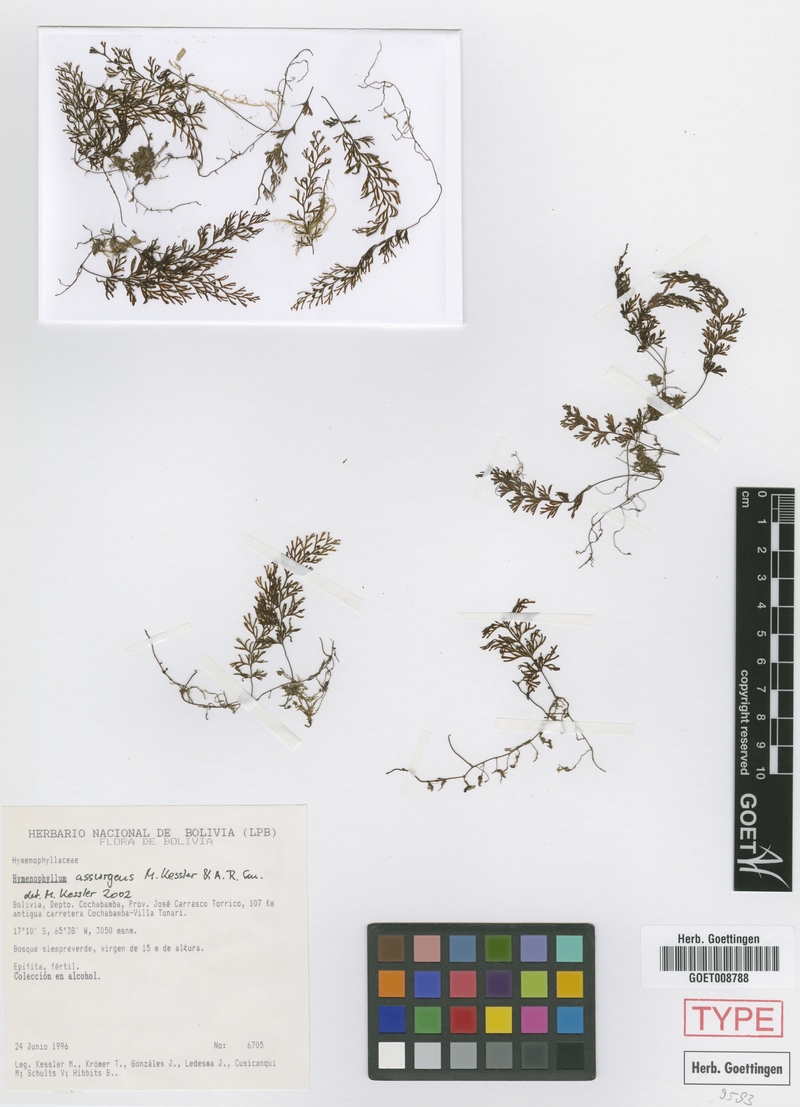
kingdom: Plantae
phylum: Tracheophyta
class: Polypodiopsida
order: Hymenophyllales
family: Hymenophyllaceae
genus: Hymenophyllum
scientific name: Hymenophyllum assurgens
